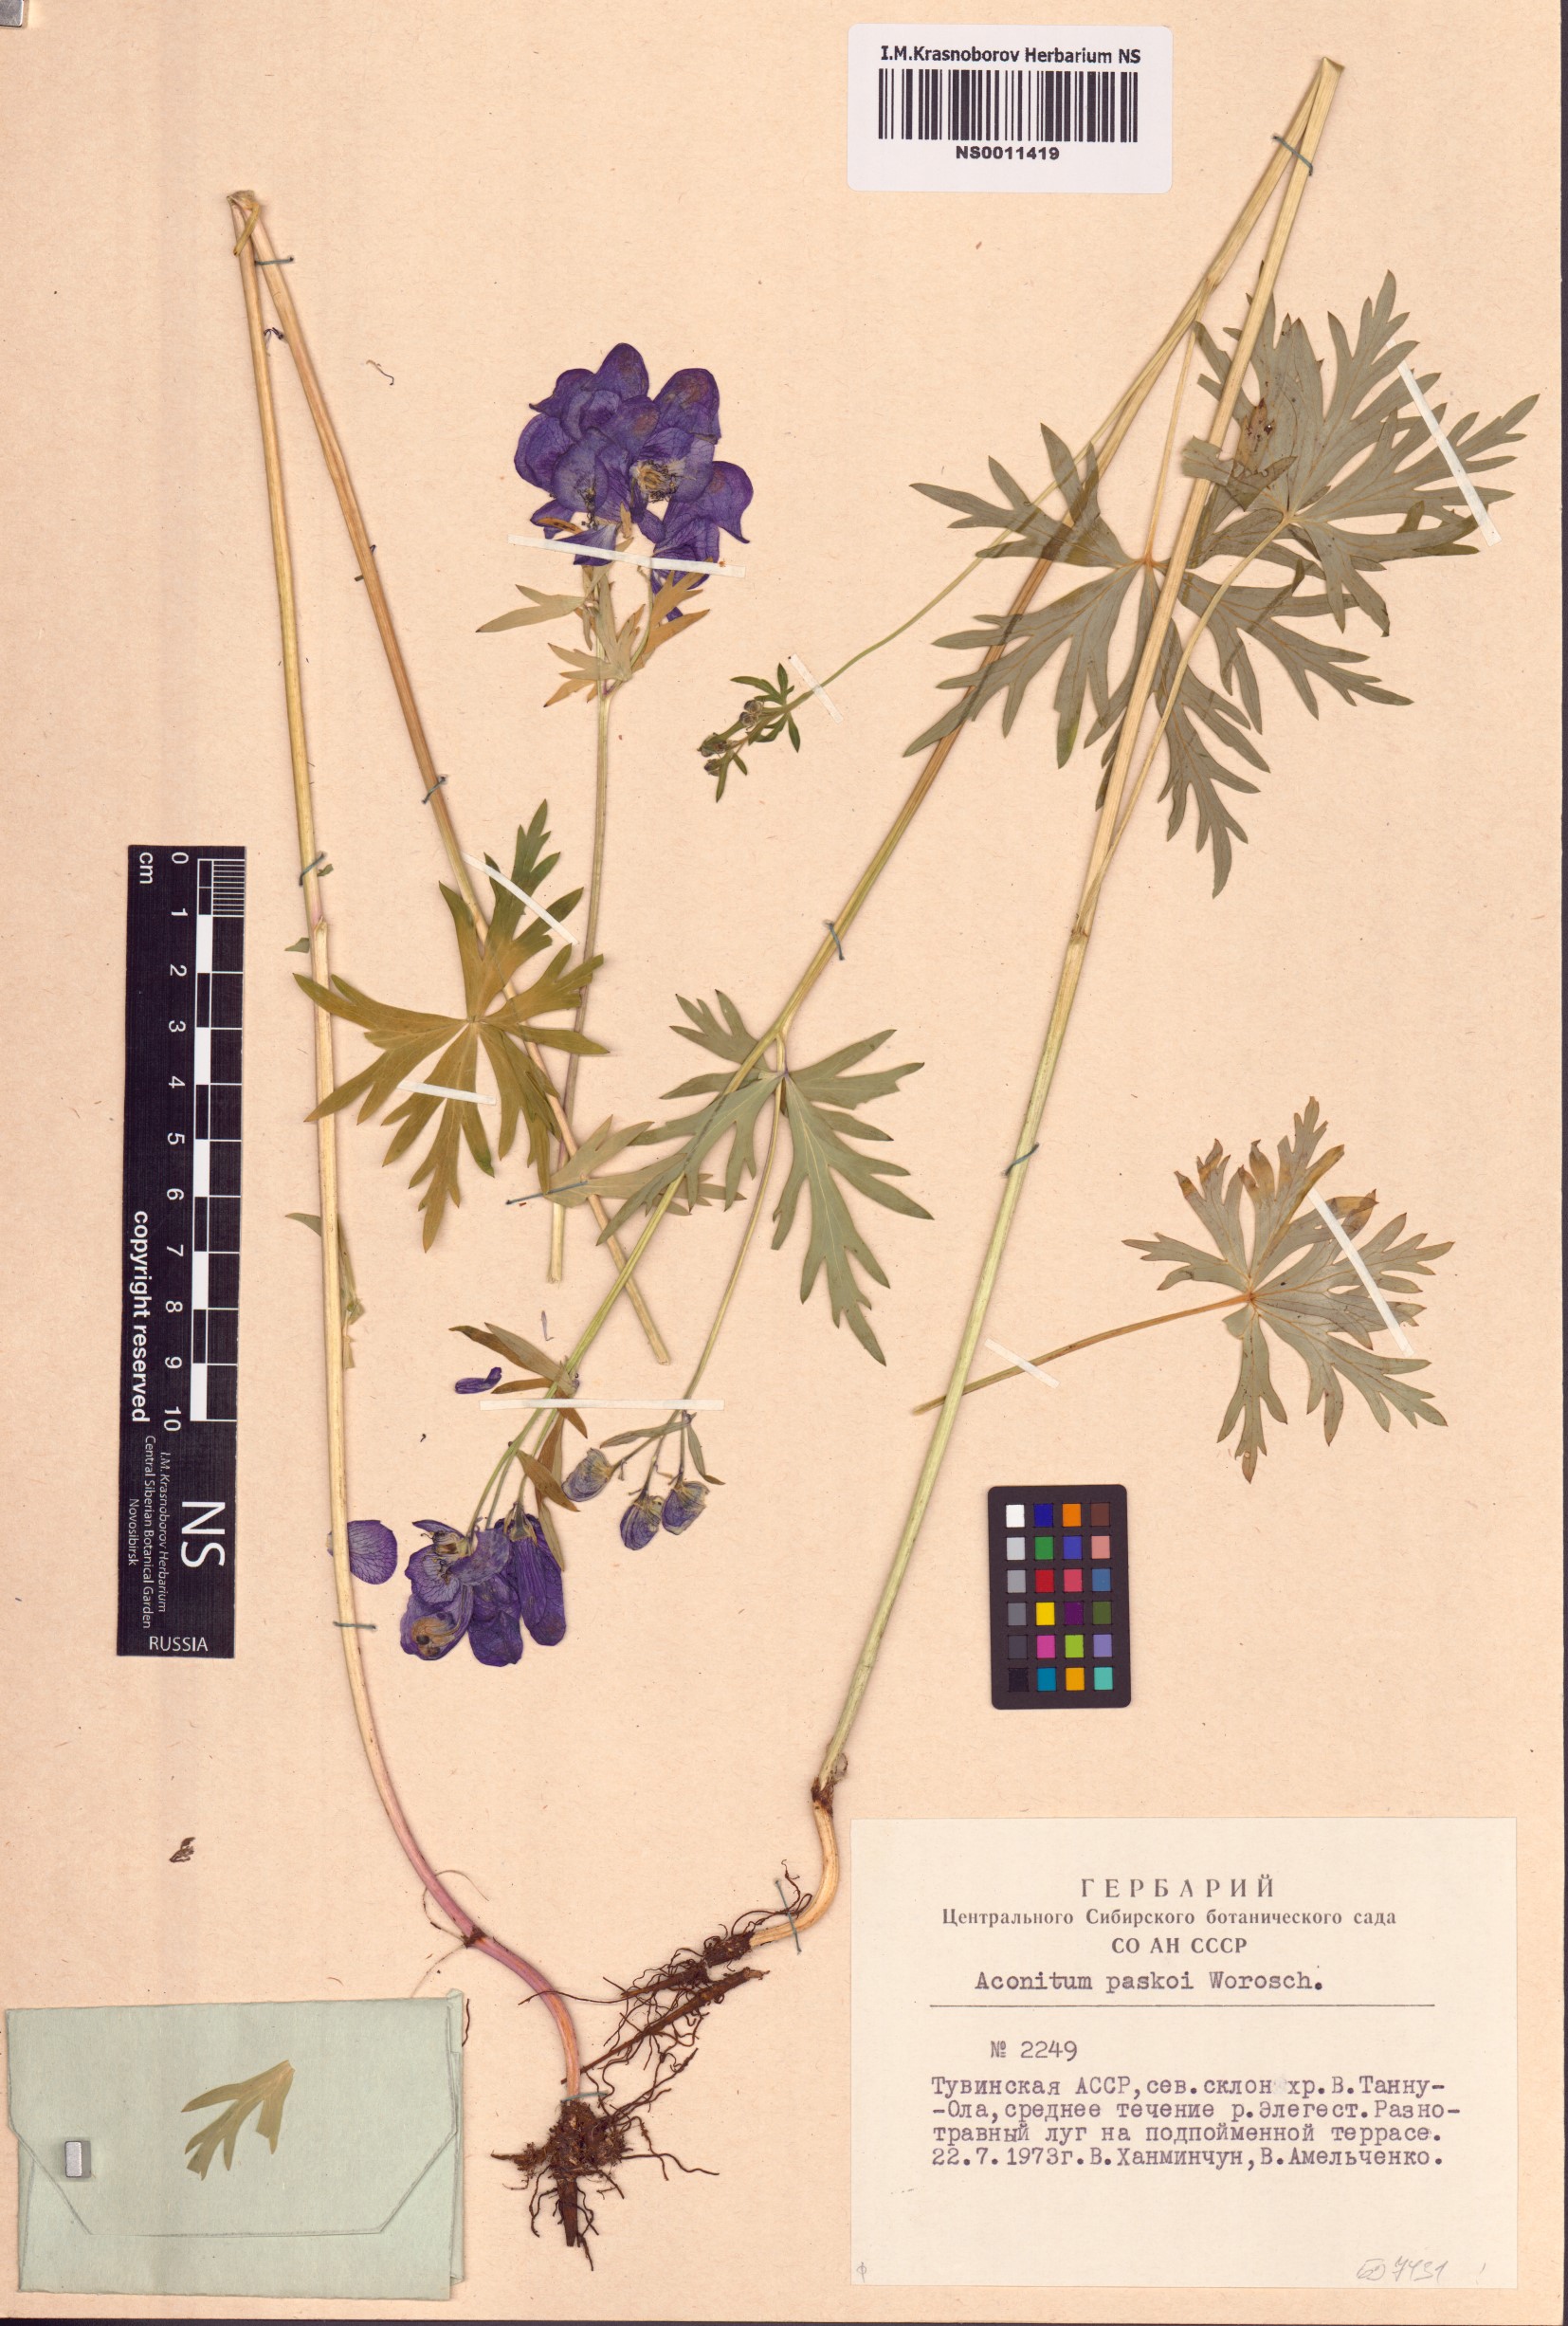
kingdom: Plantae
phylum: Tracheophyta
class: Magnoliopsida
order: Ranunculales
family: Ranunculaceae
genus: Aconitum
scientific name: Aconitum pascoi
